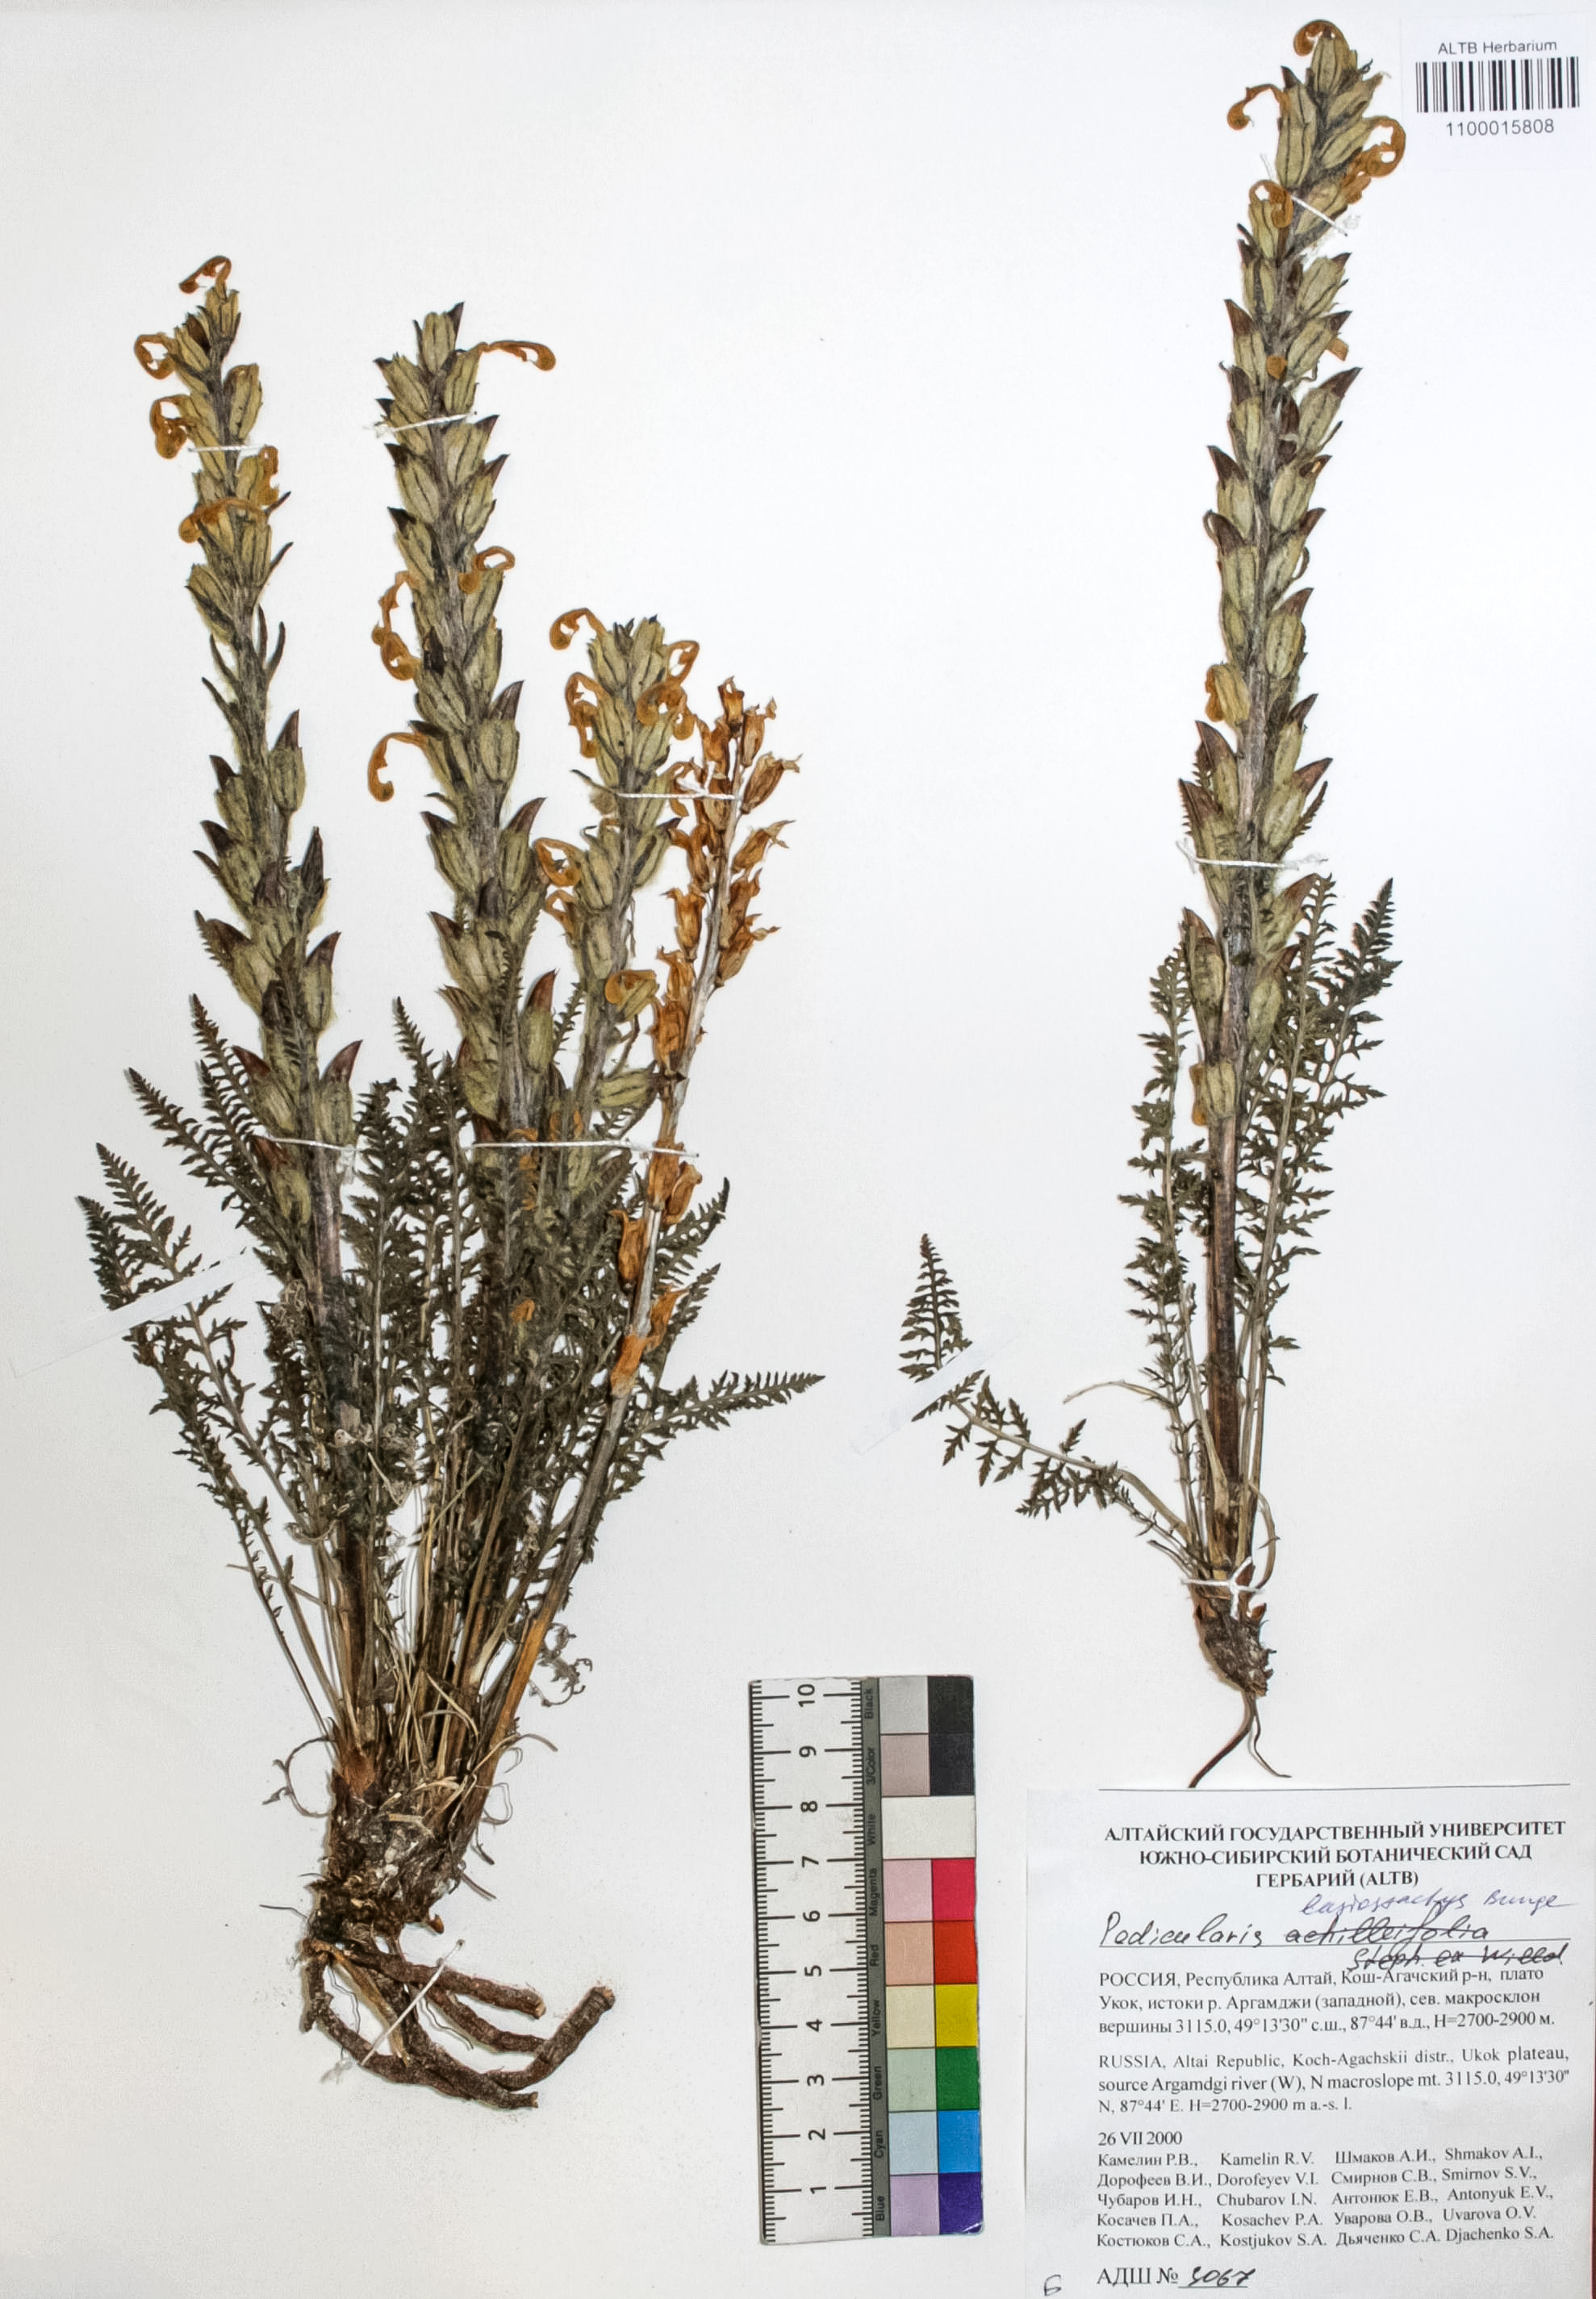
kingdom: Plantae
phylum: Tracheophyta
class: Magnoliopsida
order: Lamiales
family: Orobanchaceae
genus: Pedicularis
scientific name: Pedicularis lasiostachys
